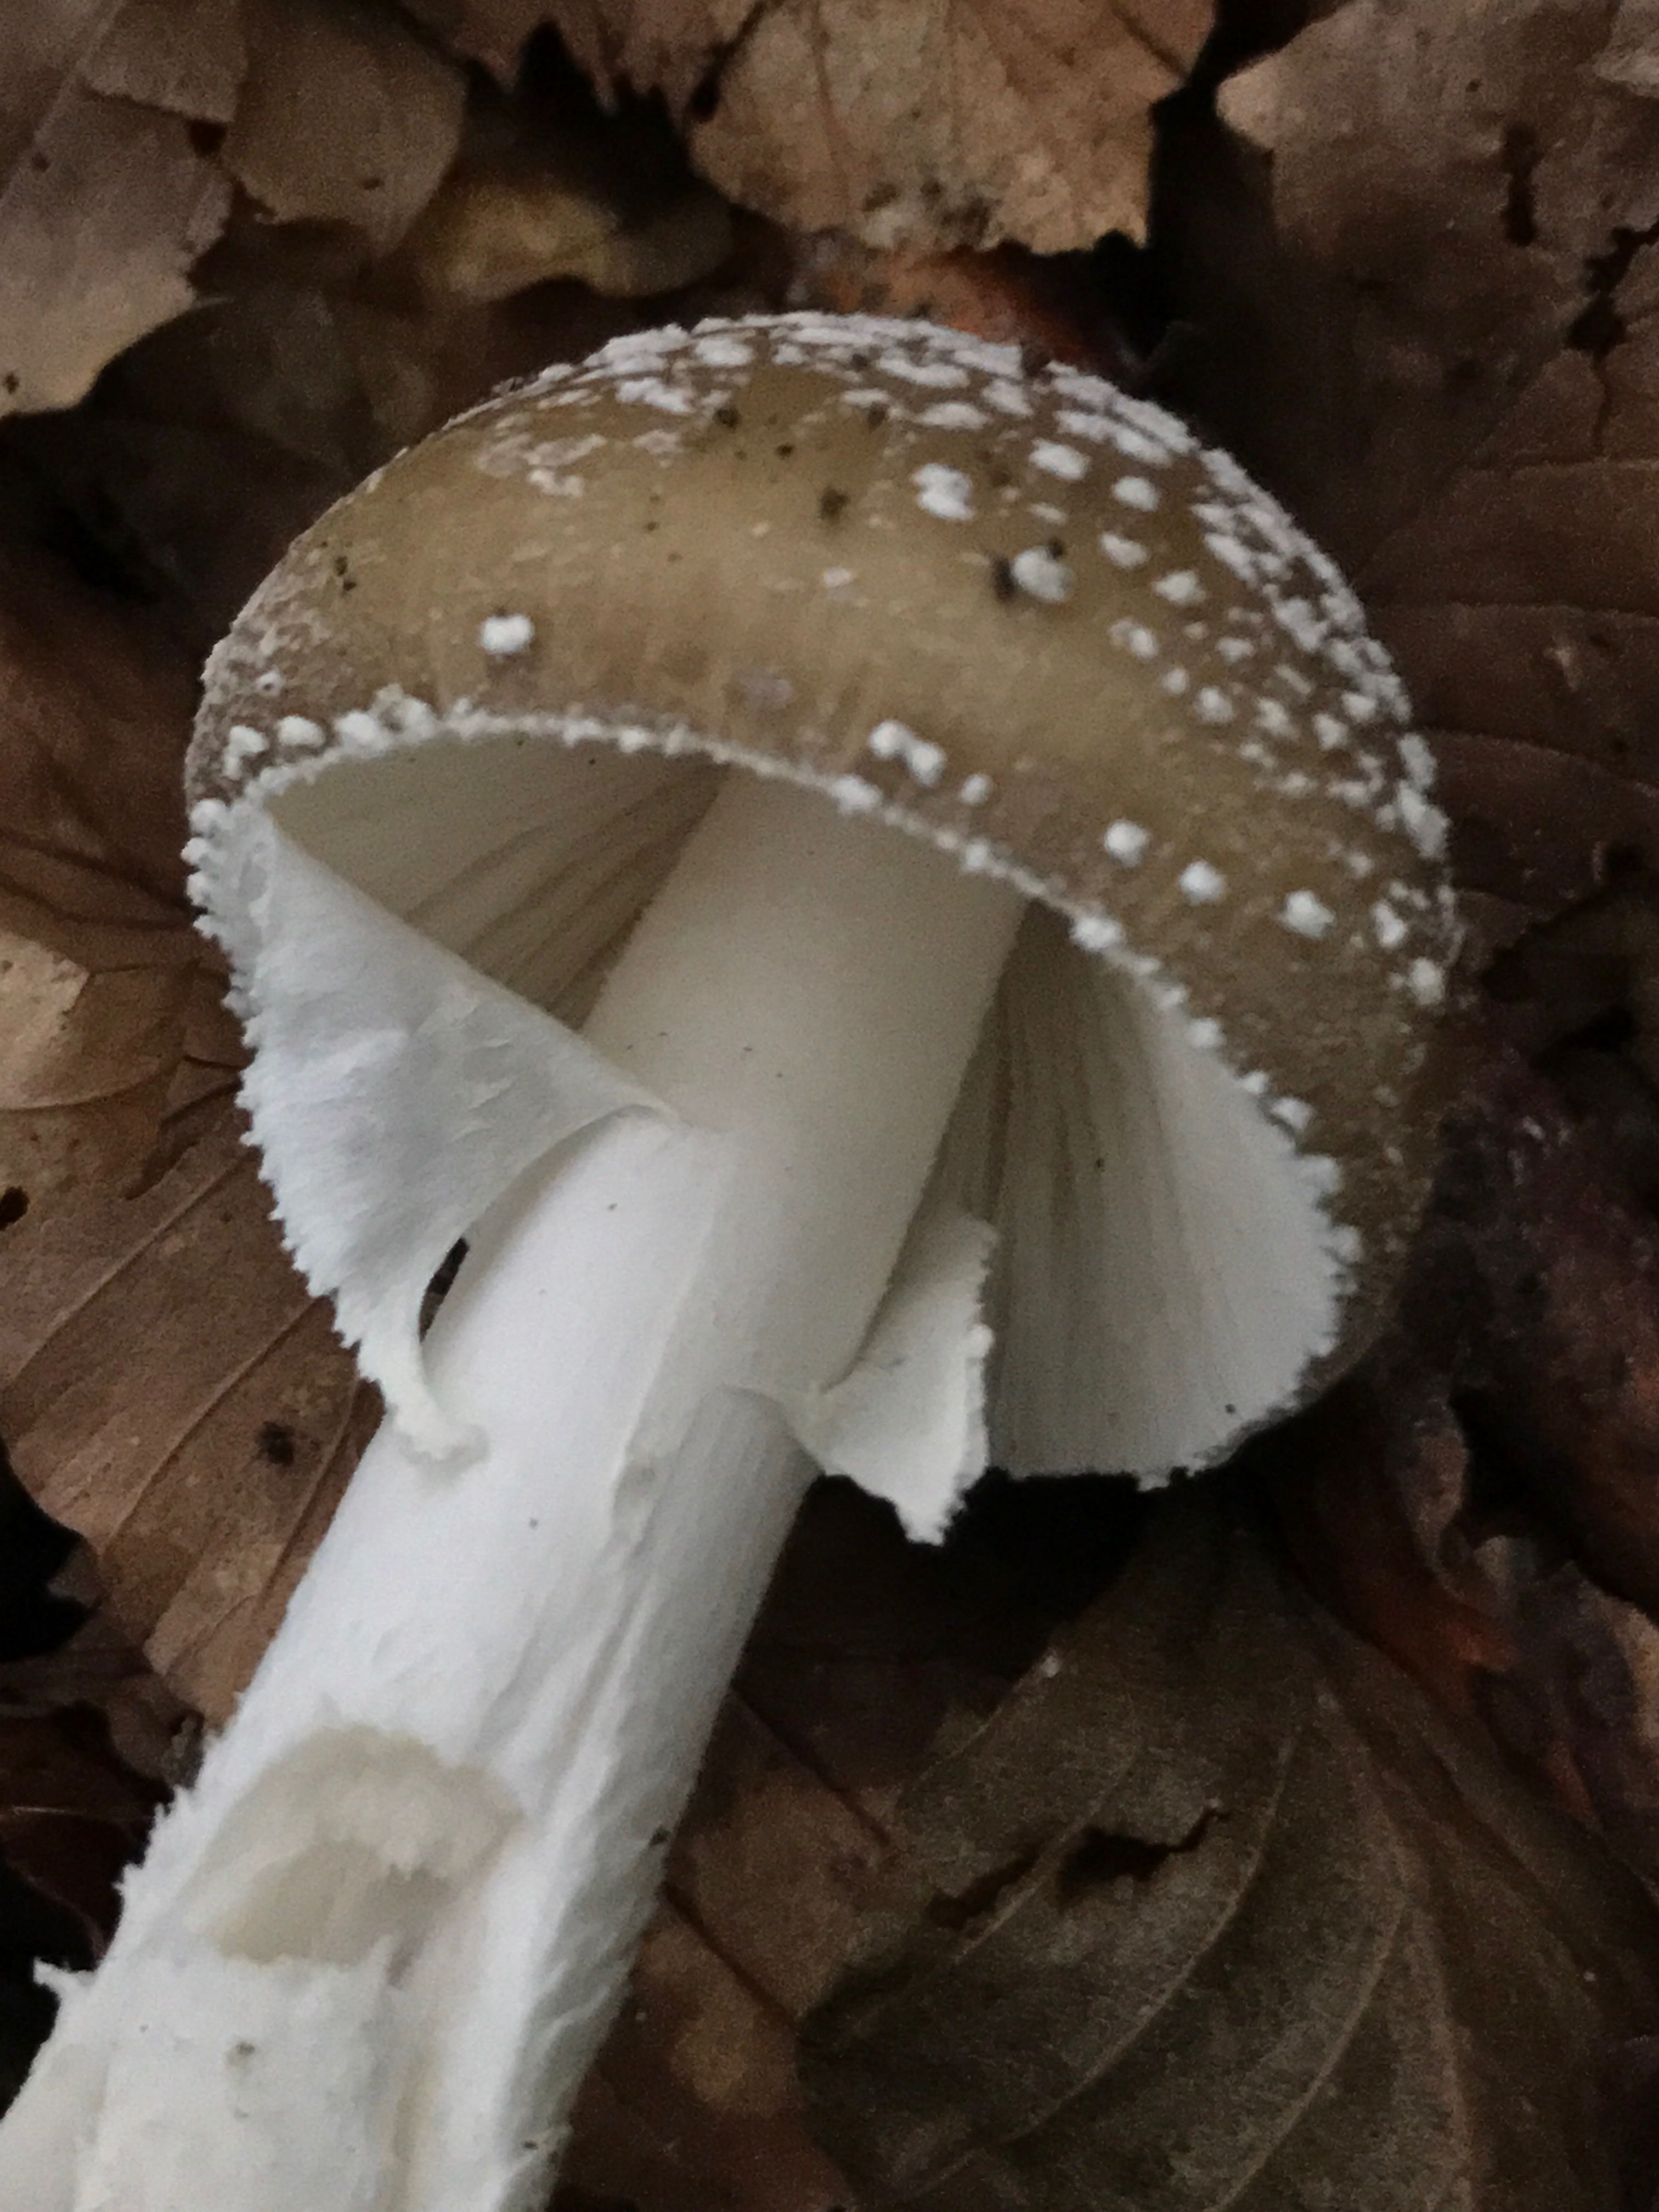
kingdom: Fungi
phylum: Basidiomycota
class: Agaricomycetes
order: Agaricales
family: Amanitaceae
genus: Amanita
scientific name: Amanita pantherina
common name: panter-fluesvamp
